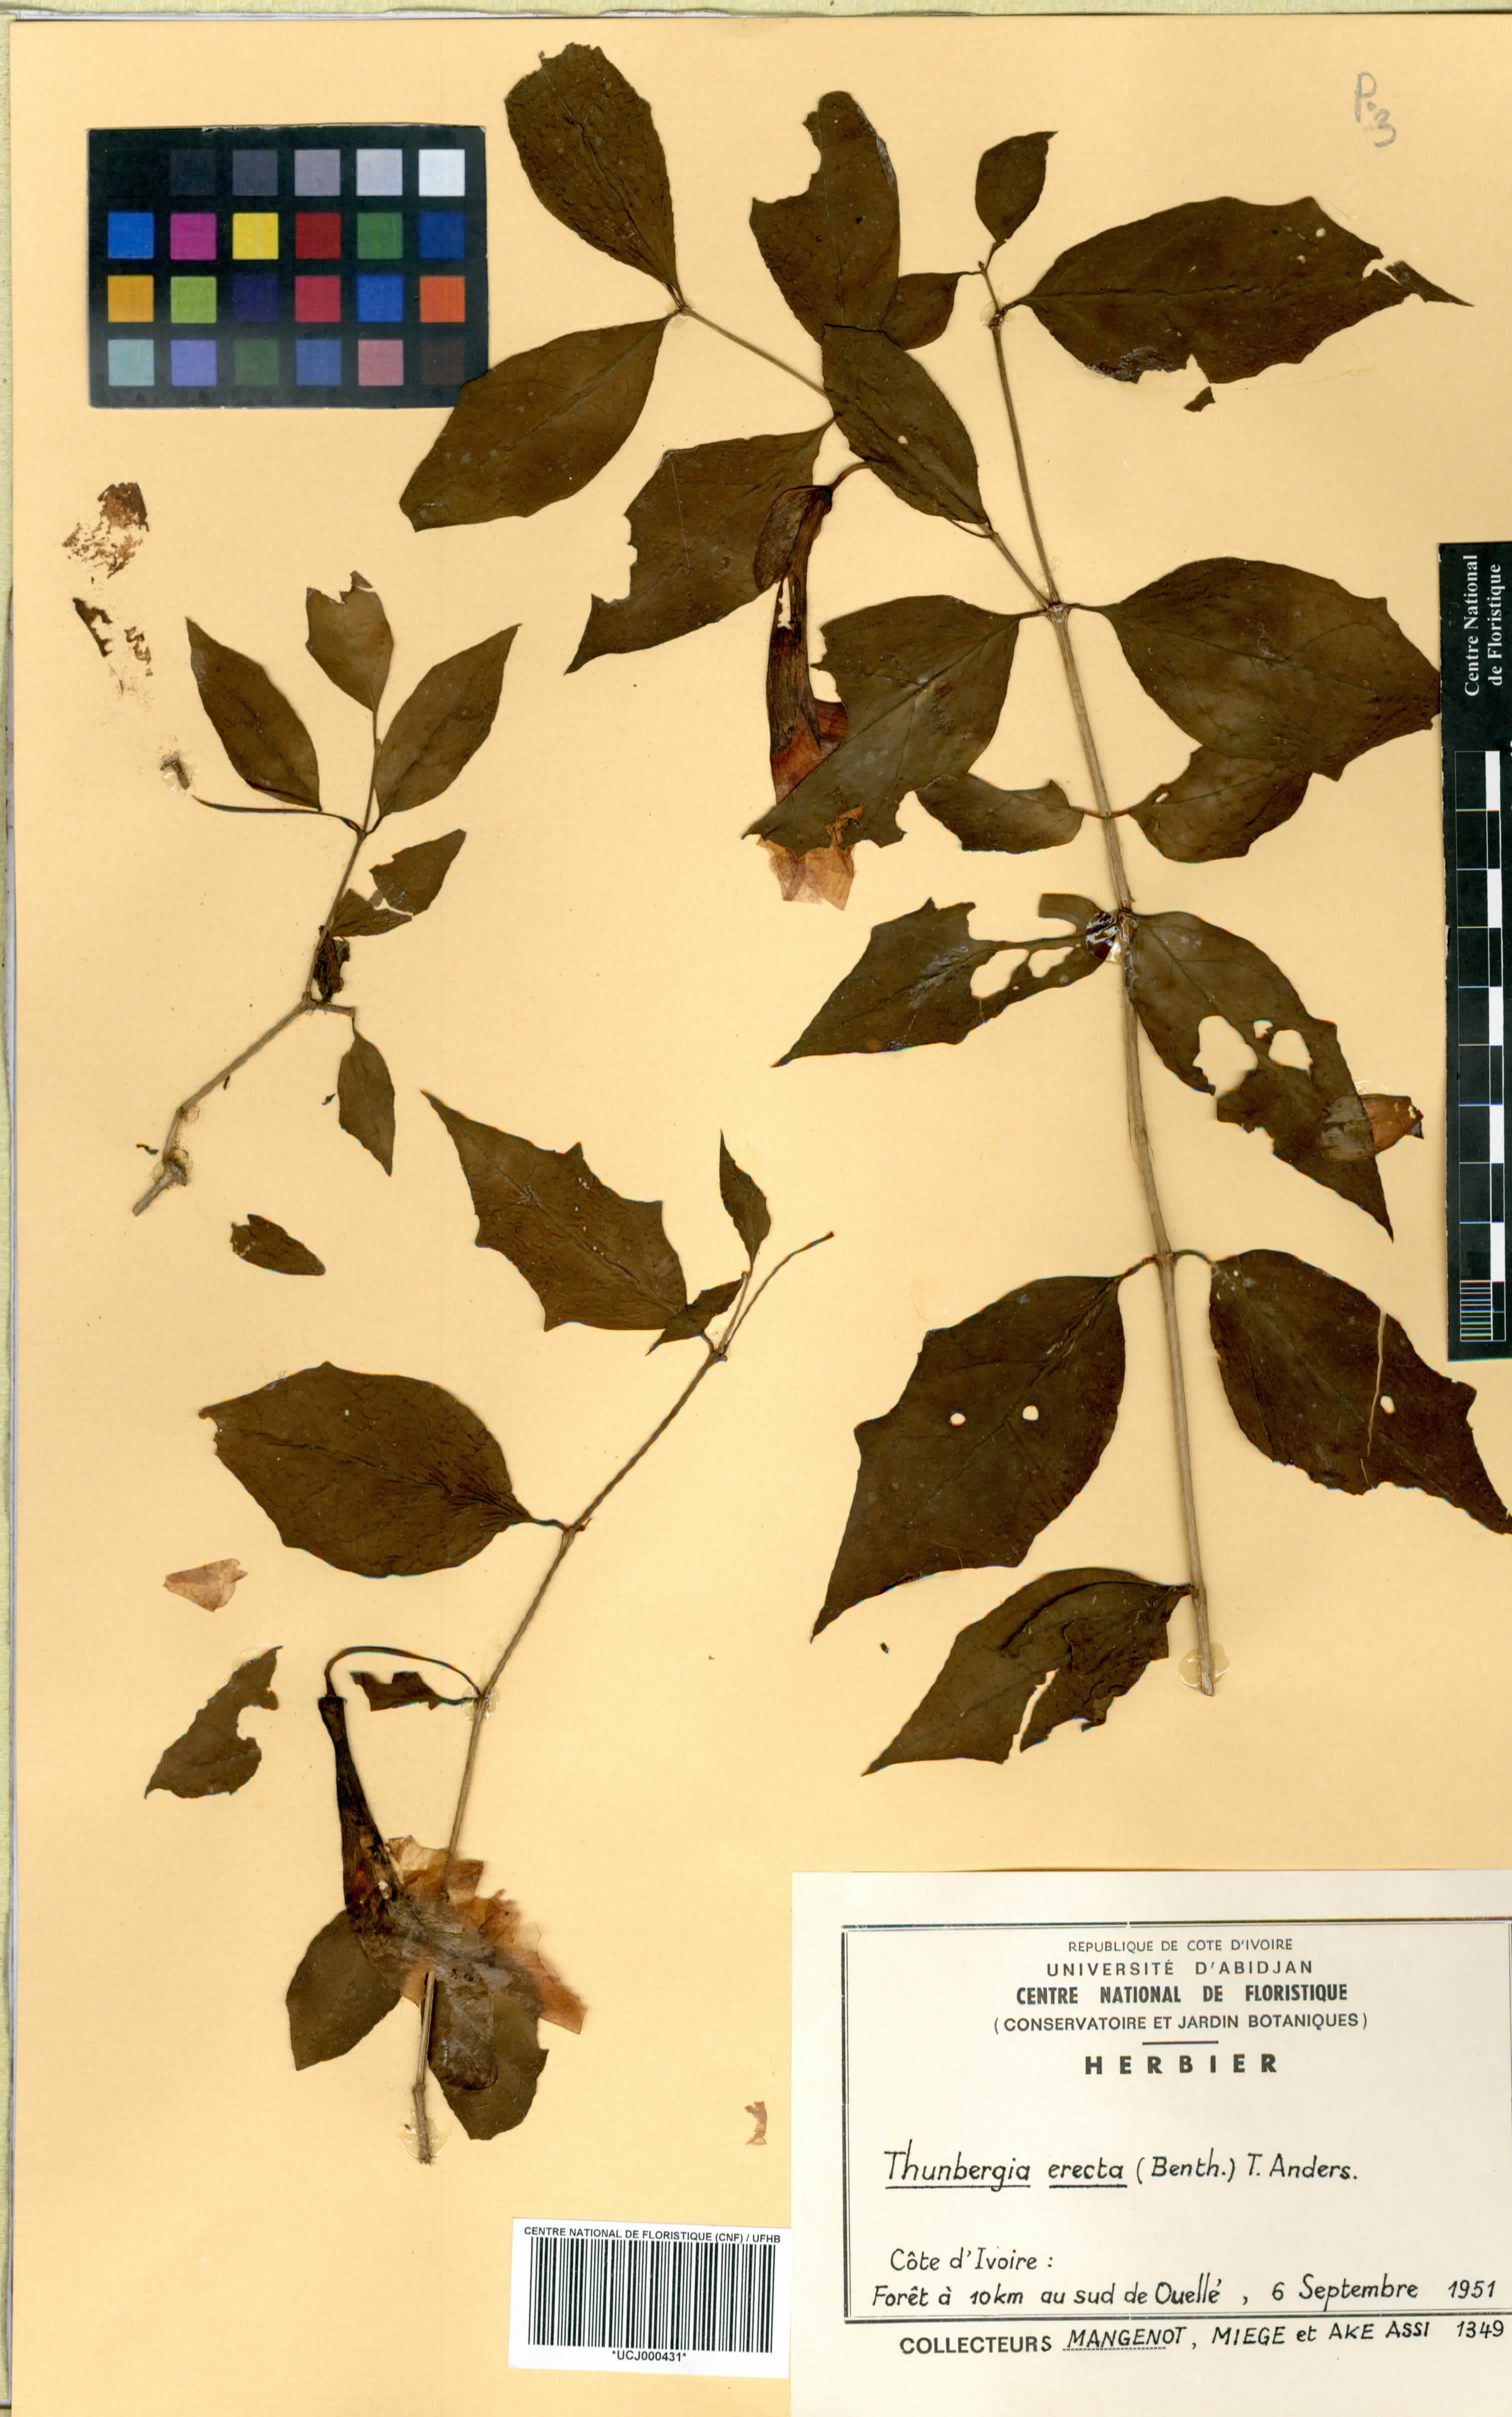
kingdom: Plantae
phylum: Tracheophyta
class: Magnoliopsida
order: Lamiales
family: Acanthaceae
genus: Thunbergia
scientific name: Thunbergia erecta
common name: Bush clockvine
